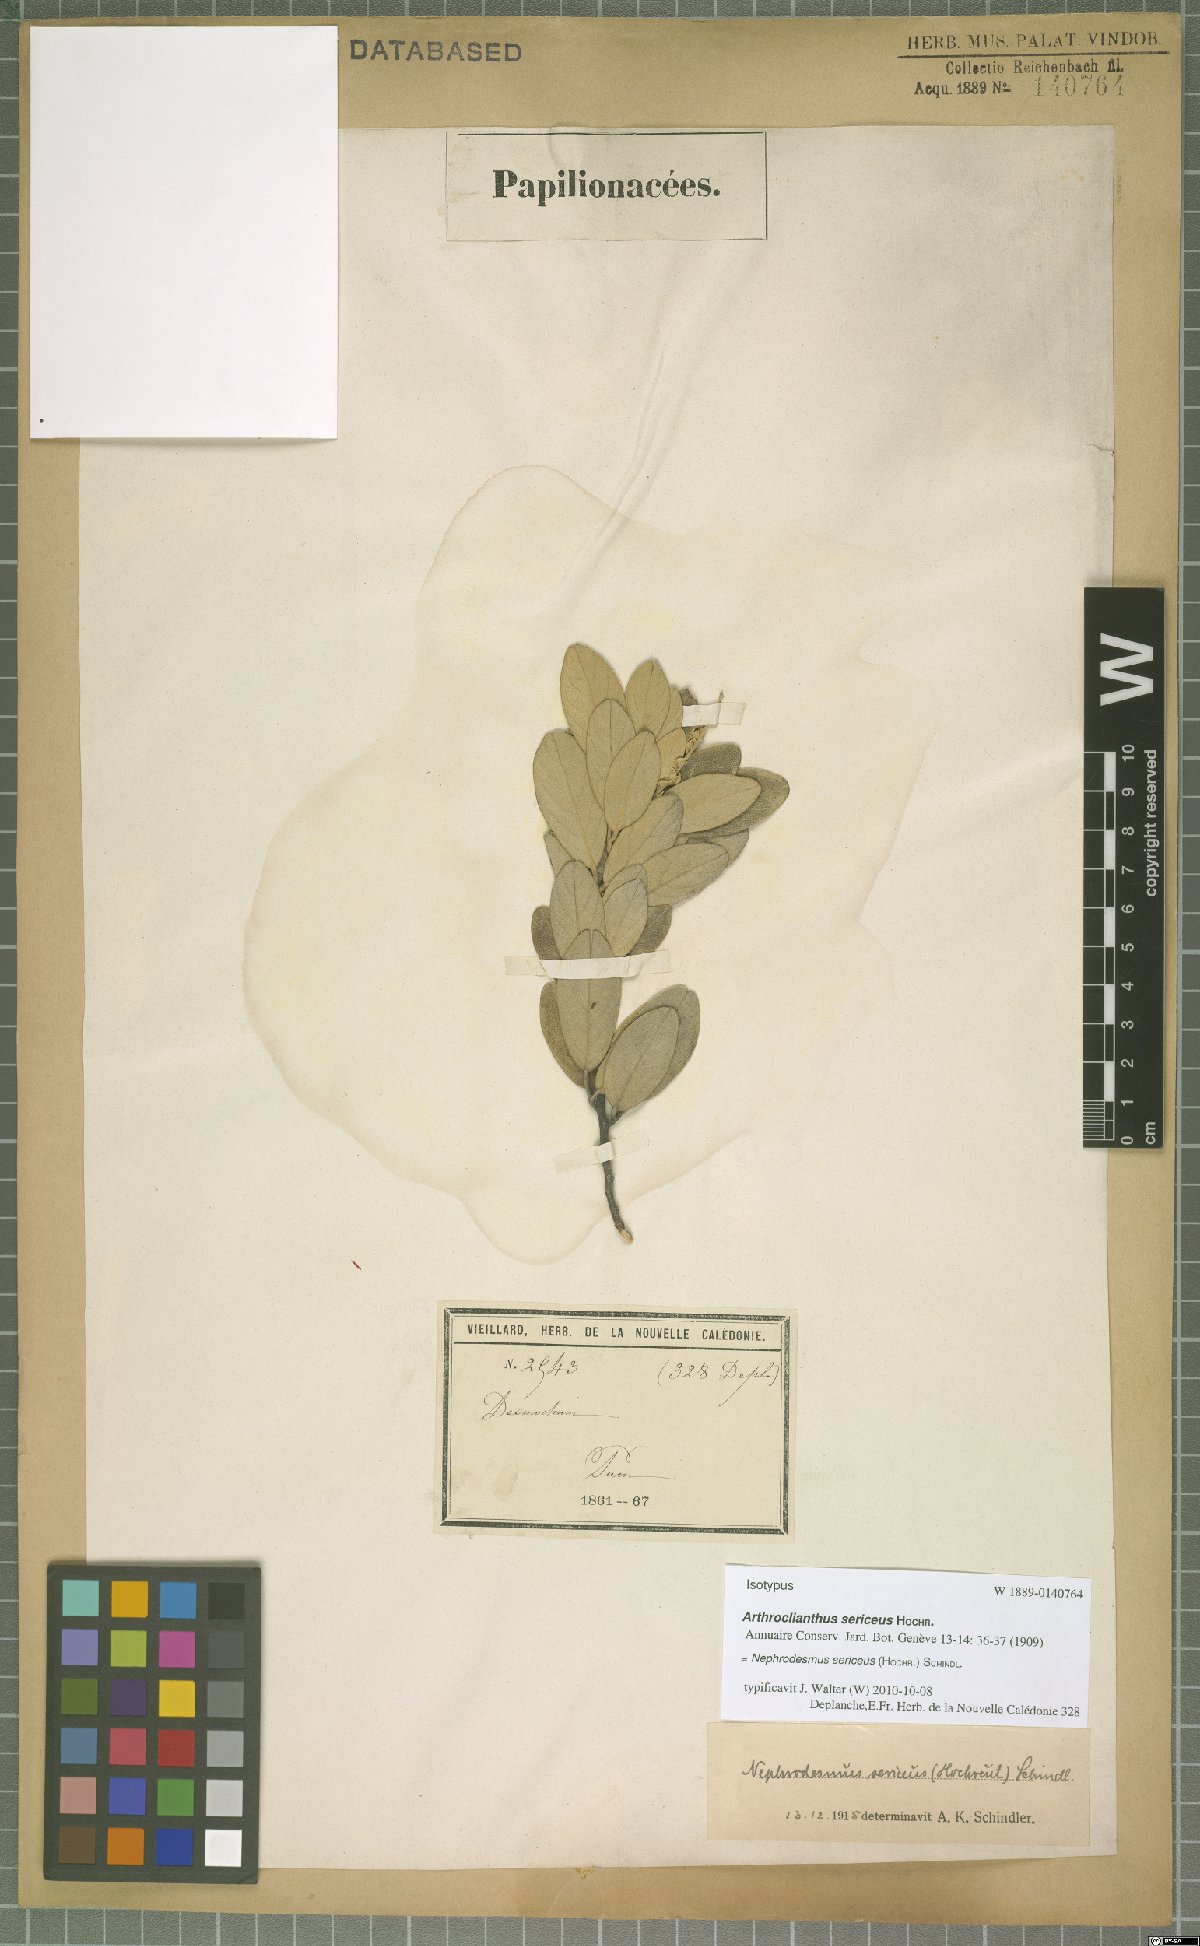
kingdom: Plantae
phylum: Tracheophyta
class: Magnoliopsida
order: Fabales
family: Fabaceae
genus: Nephrodesmus
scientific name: Nephrodesmus sericeus
